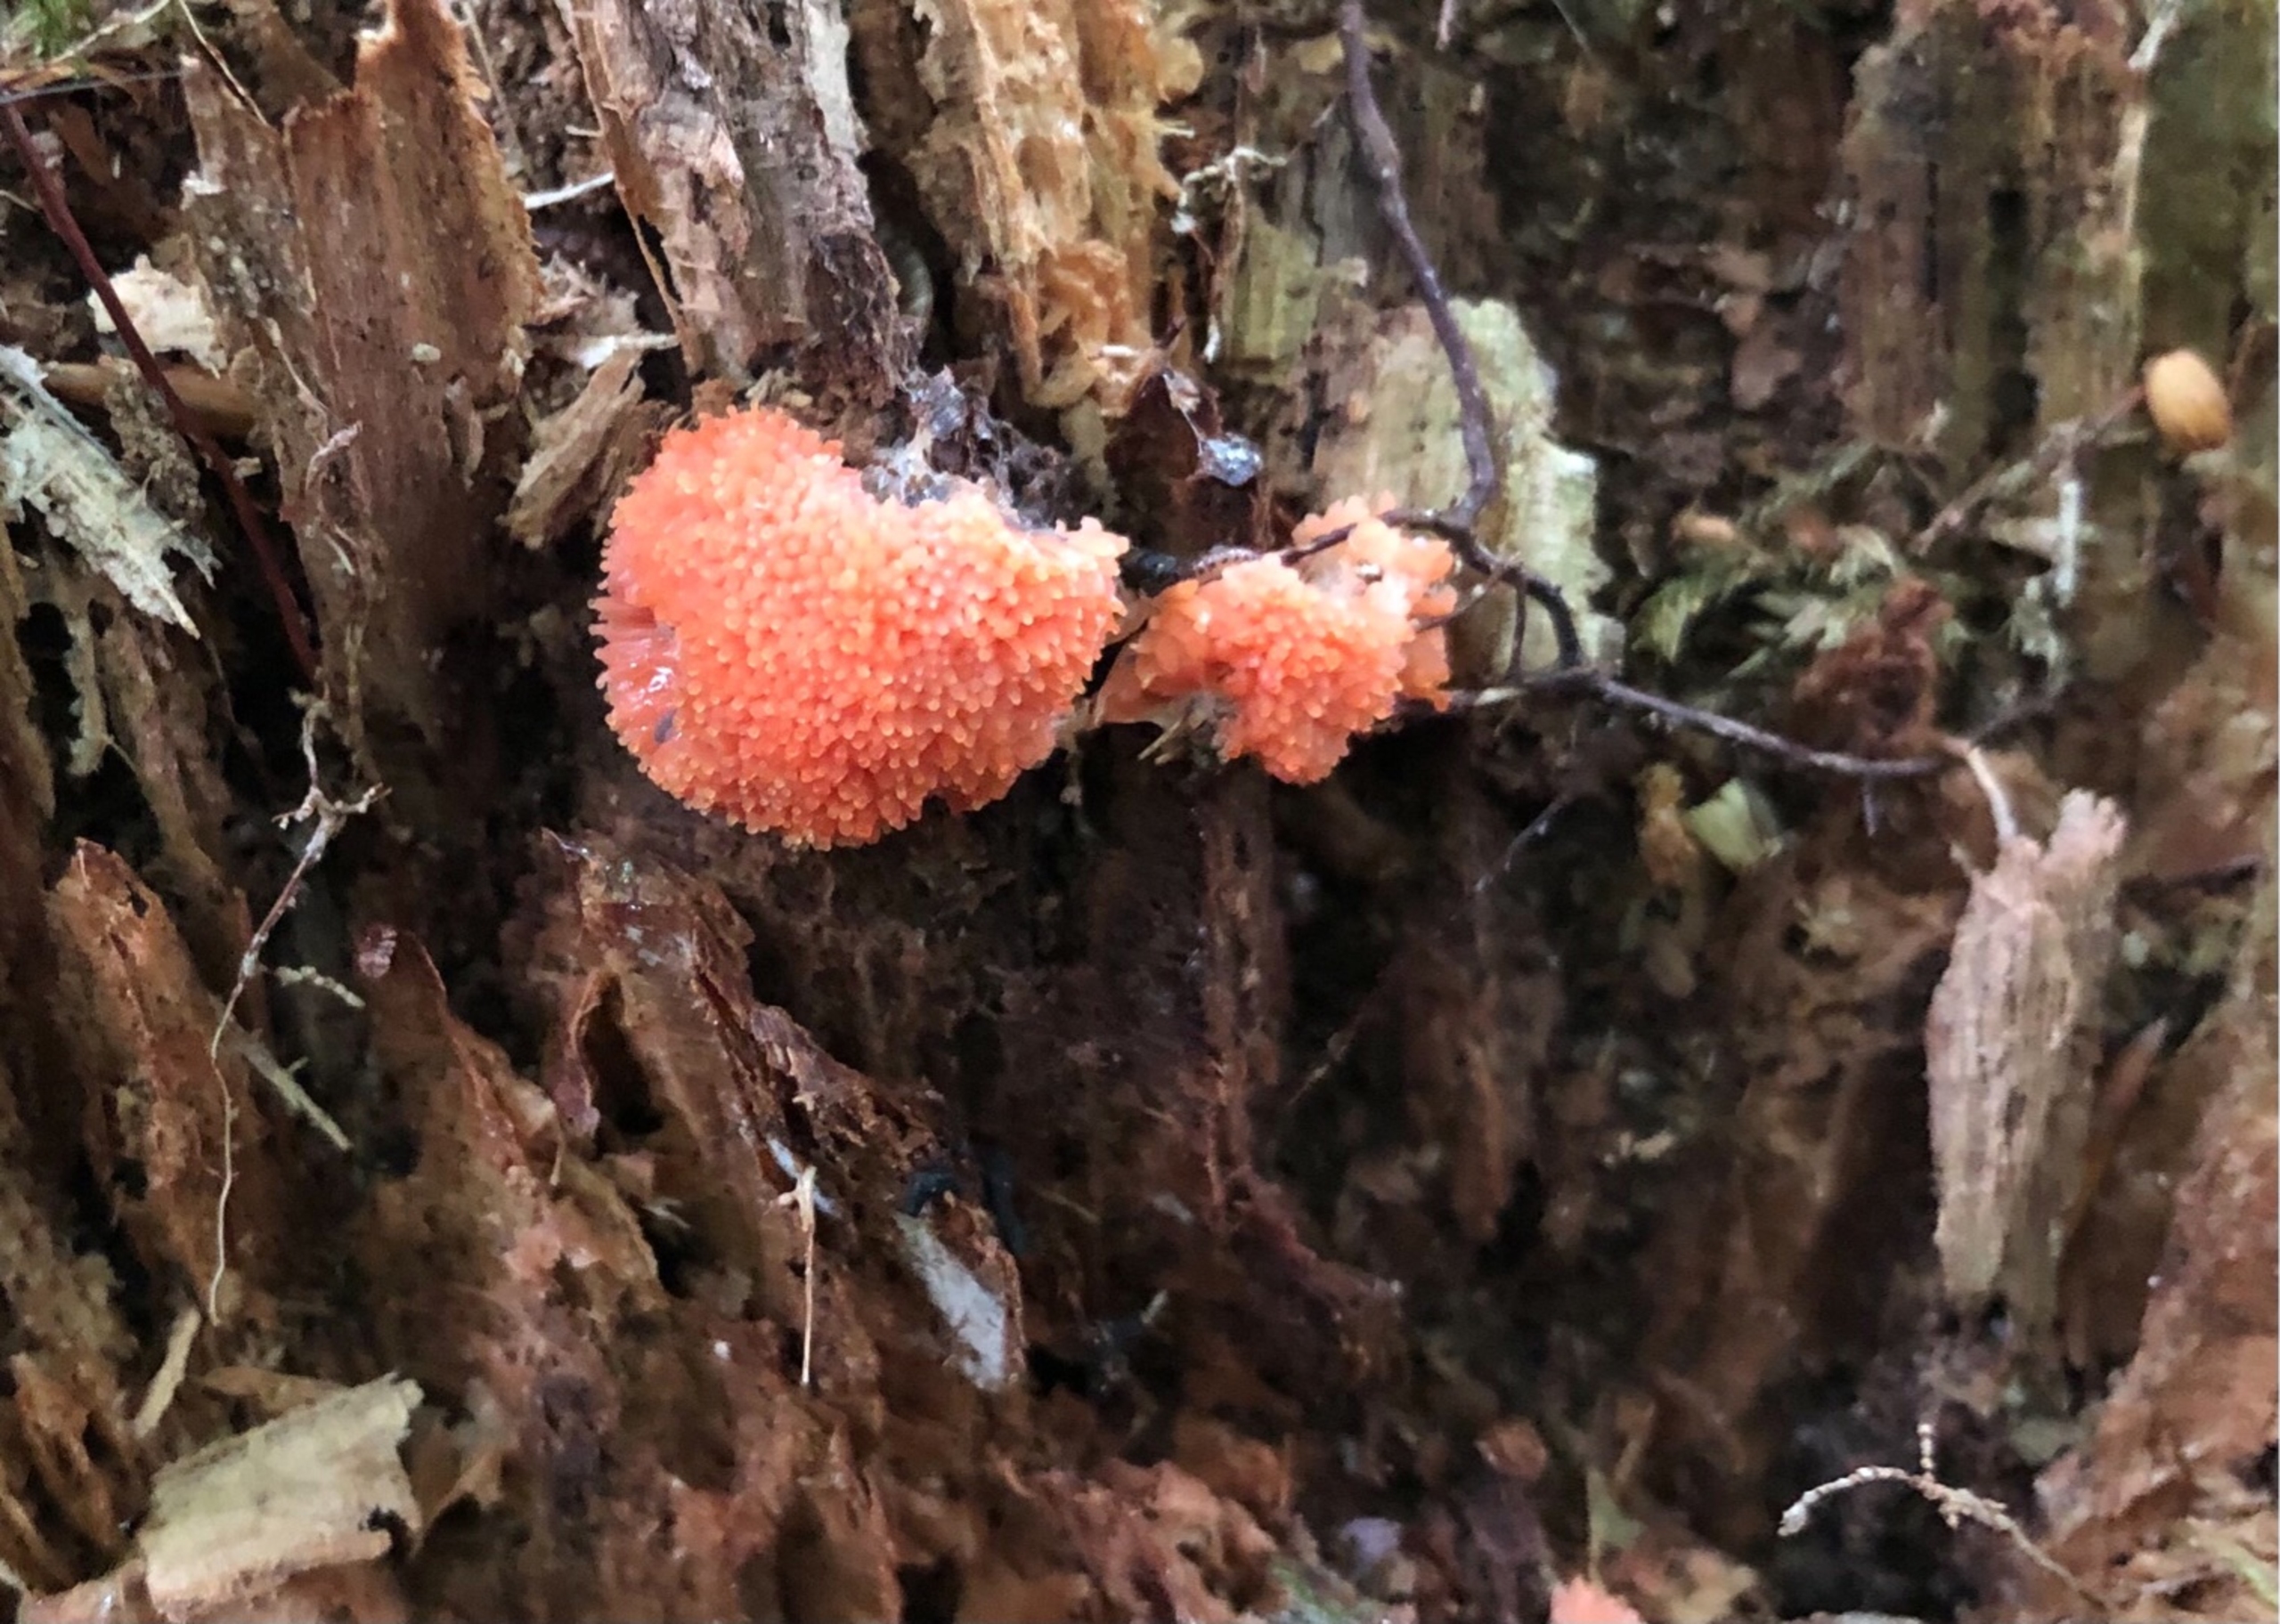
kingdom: Protozoa
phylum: Mycetozoa
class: Myxomycetes
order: Cribrariales
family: Tubiferaceae
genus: Tubifera
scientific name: Tubifera ferruginosa
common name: Kanel-støvrør
